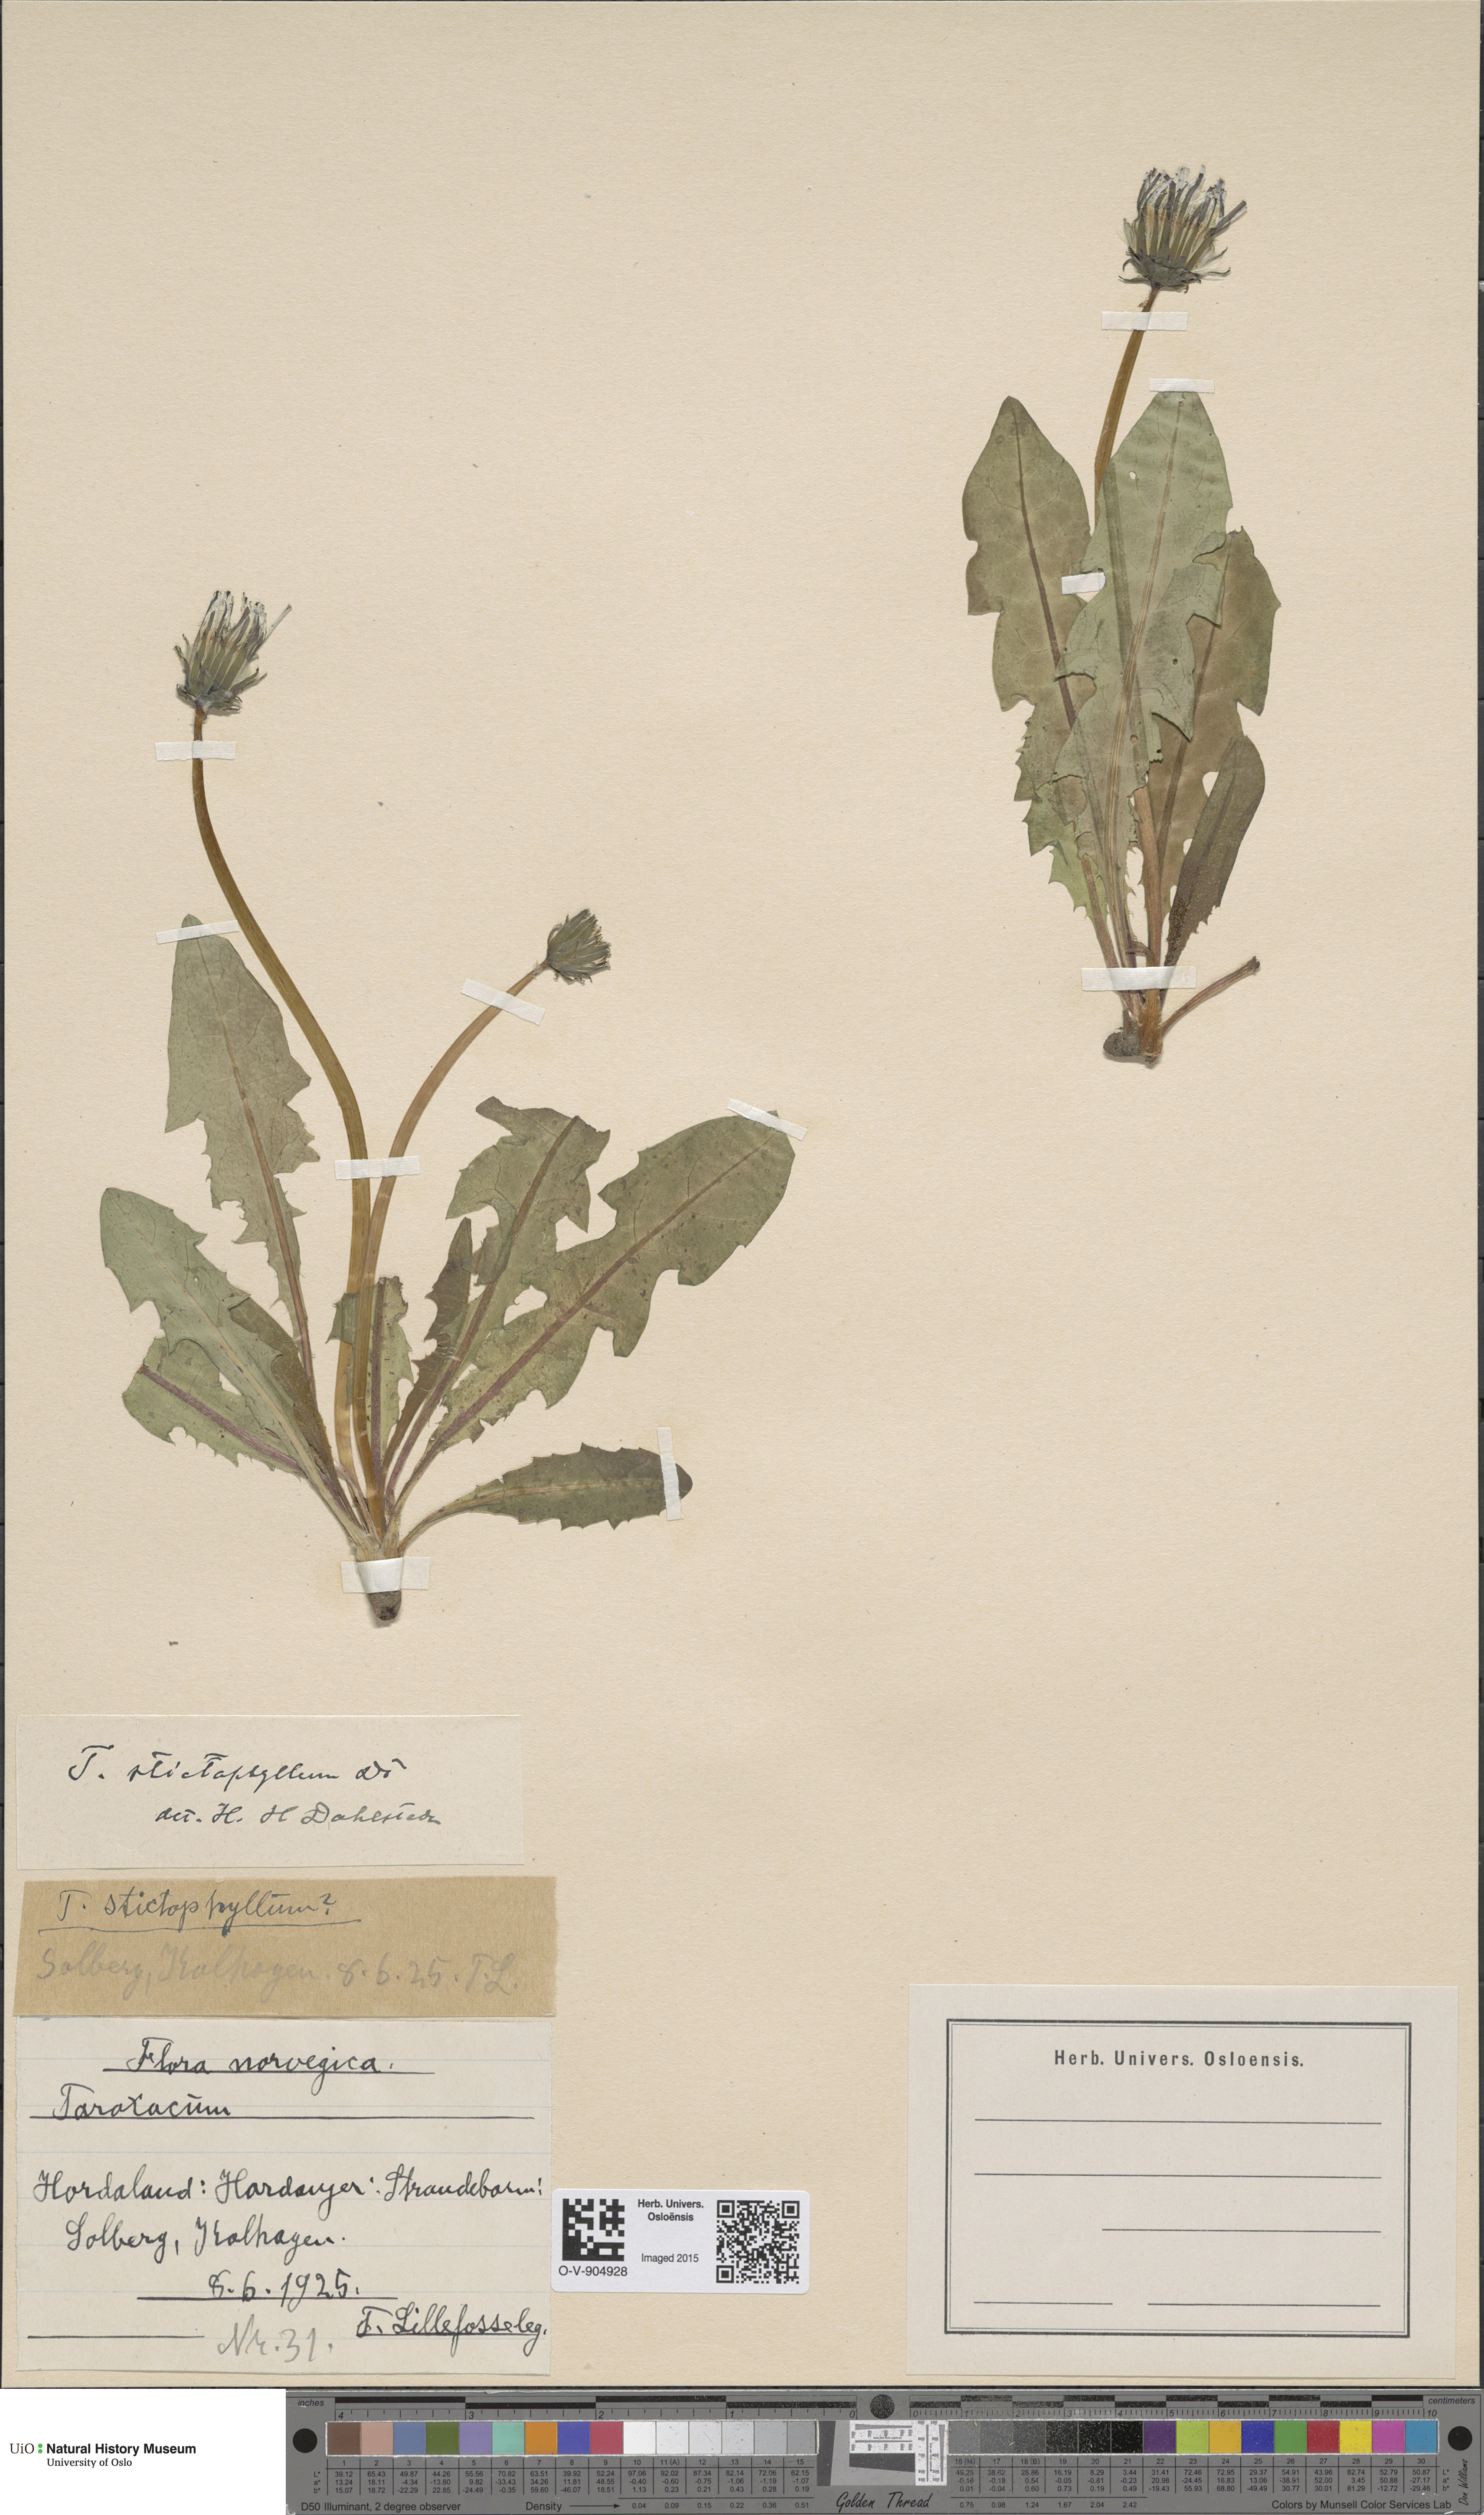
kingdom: Plantae
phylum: Tracheophyta
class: Magnoliopsida
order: Asterales
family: Asteraceae
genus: Taraxacum
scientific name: Taraxacum stictophyllum
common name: Stiff-leaved dandelion
